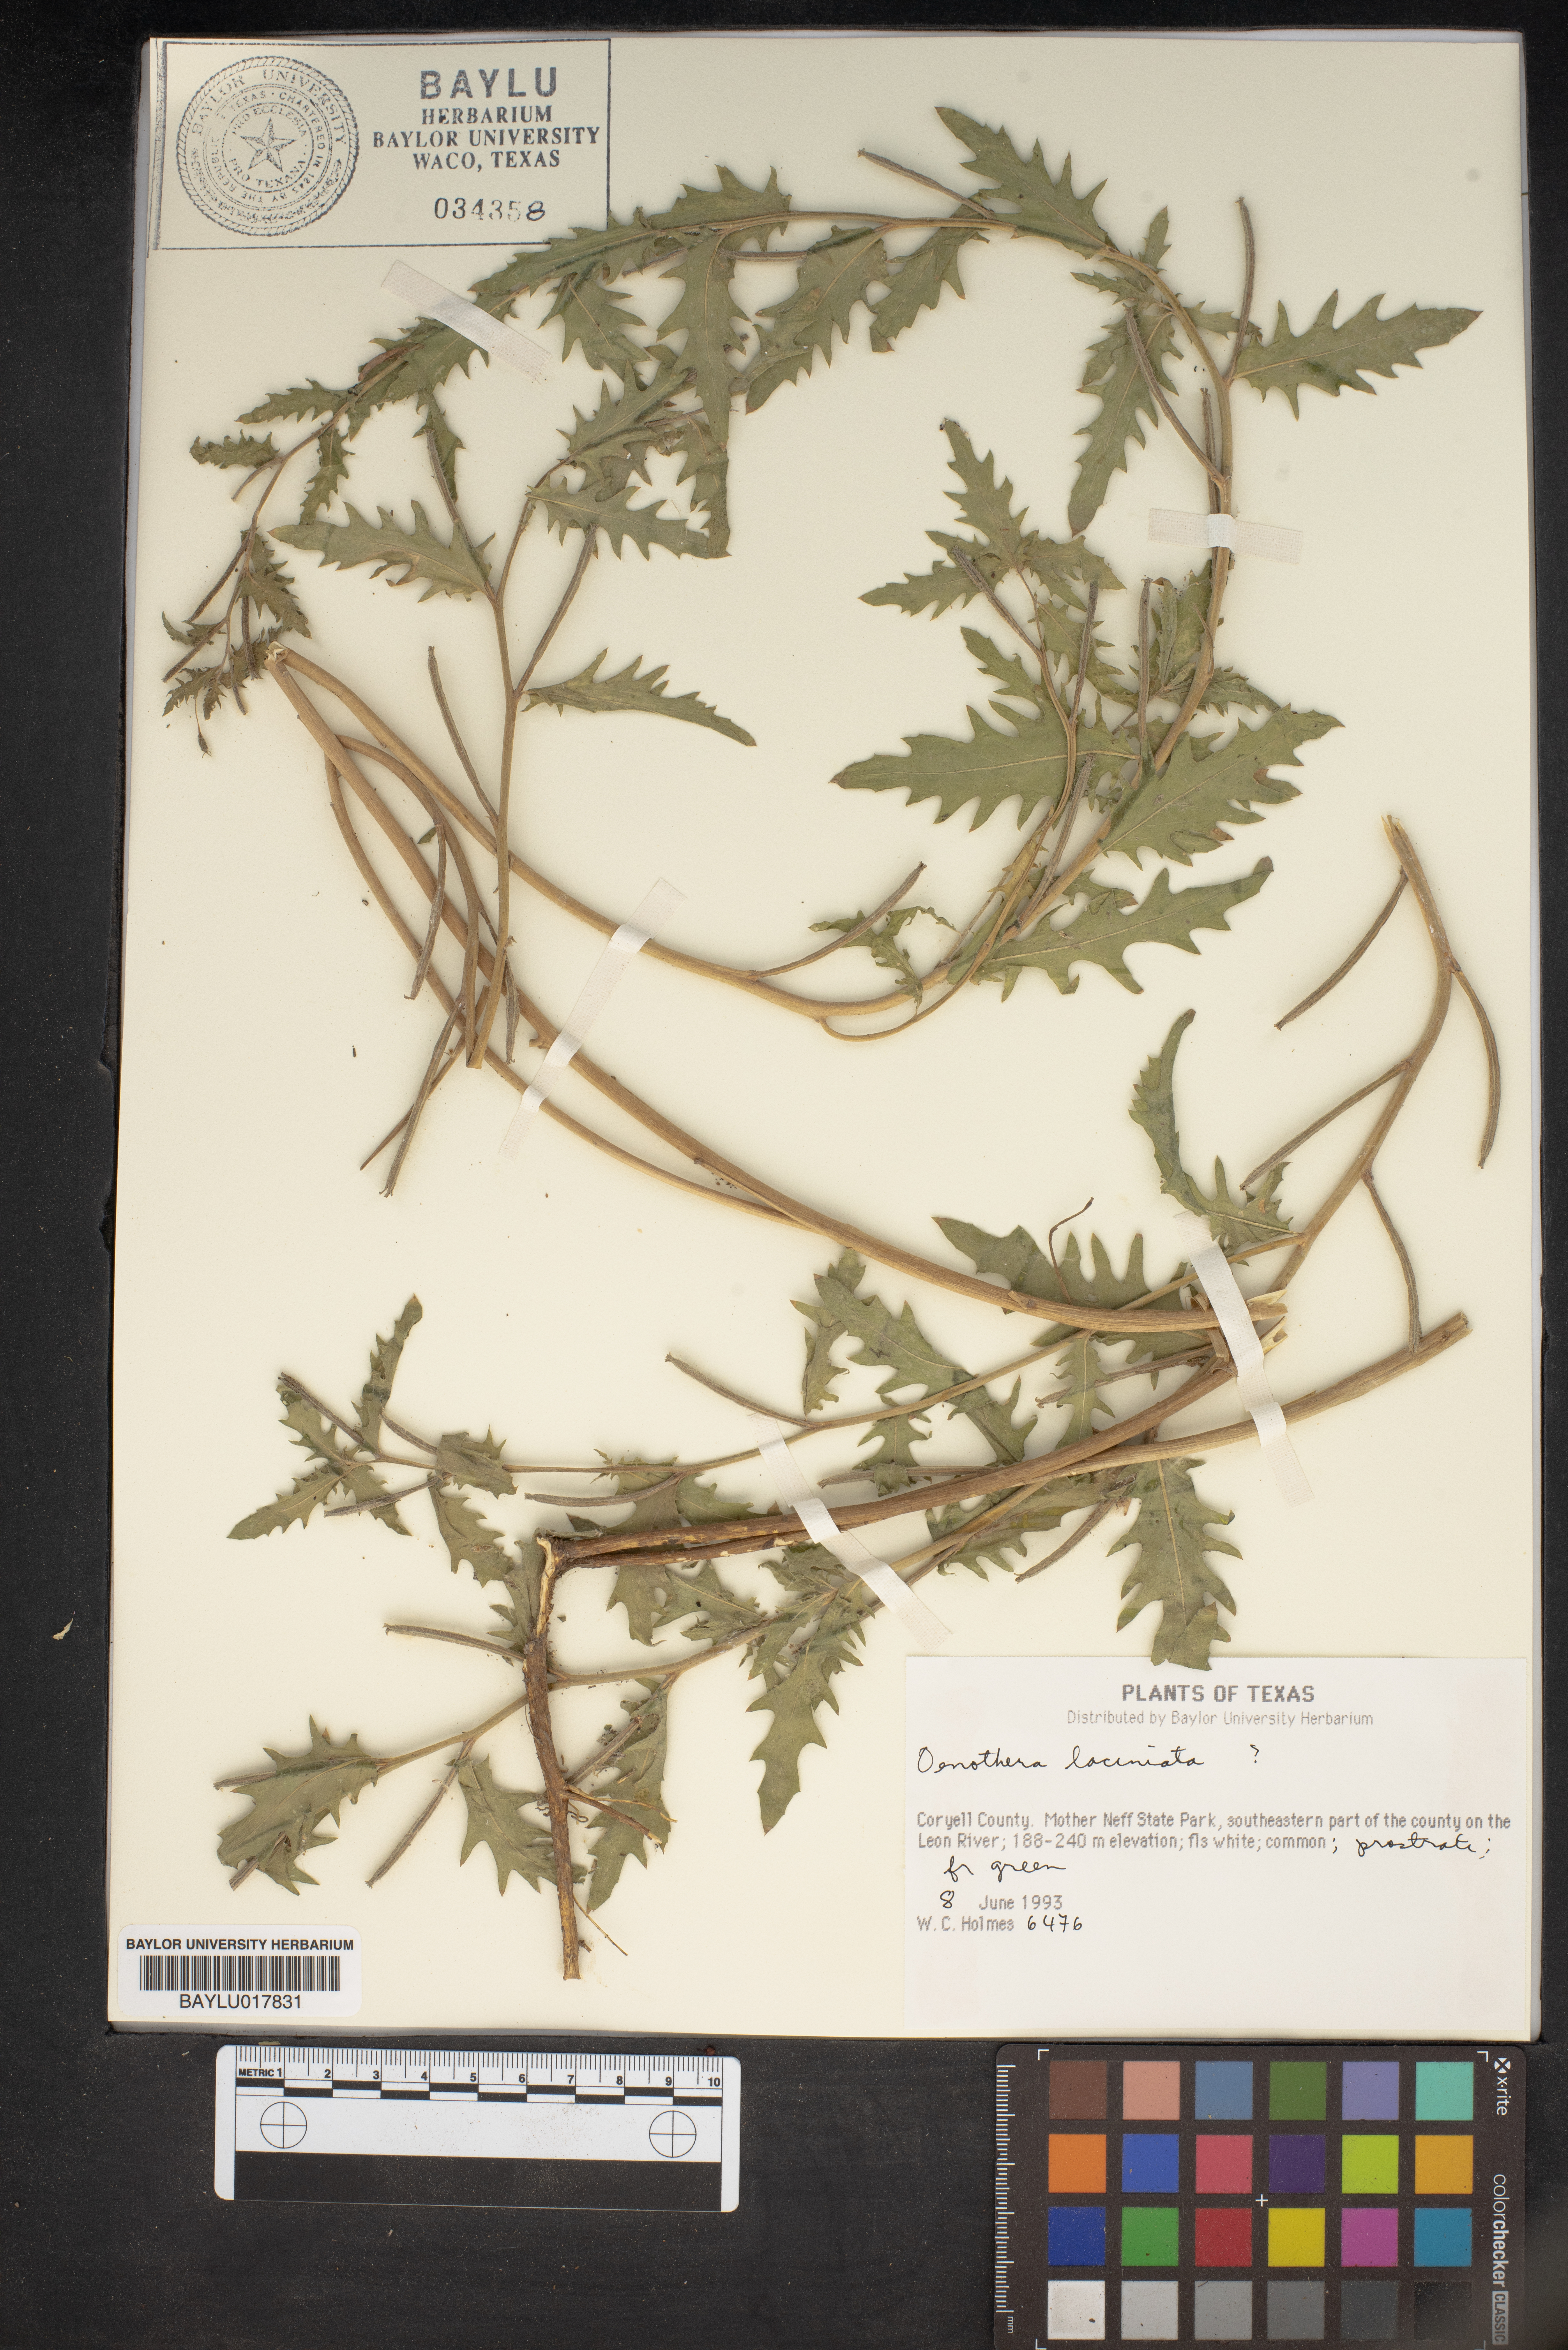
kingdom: Plantae
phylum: Tracheophyta
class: Magnoliopsida
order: Myrtales
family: Onagraceae
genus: Oenothera
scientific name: Oenothera laciniata
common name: Cut-leaved evening-primrose
